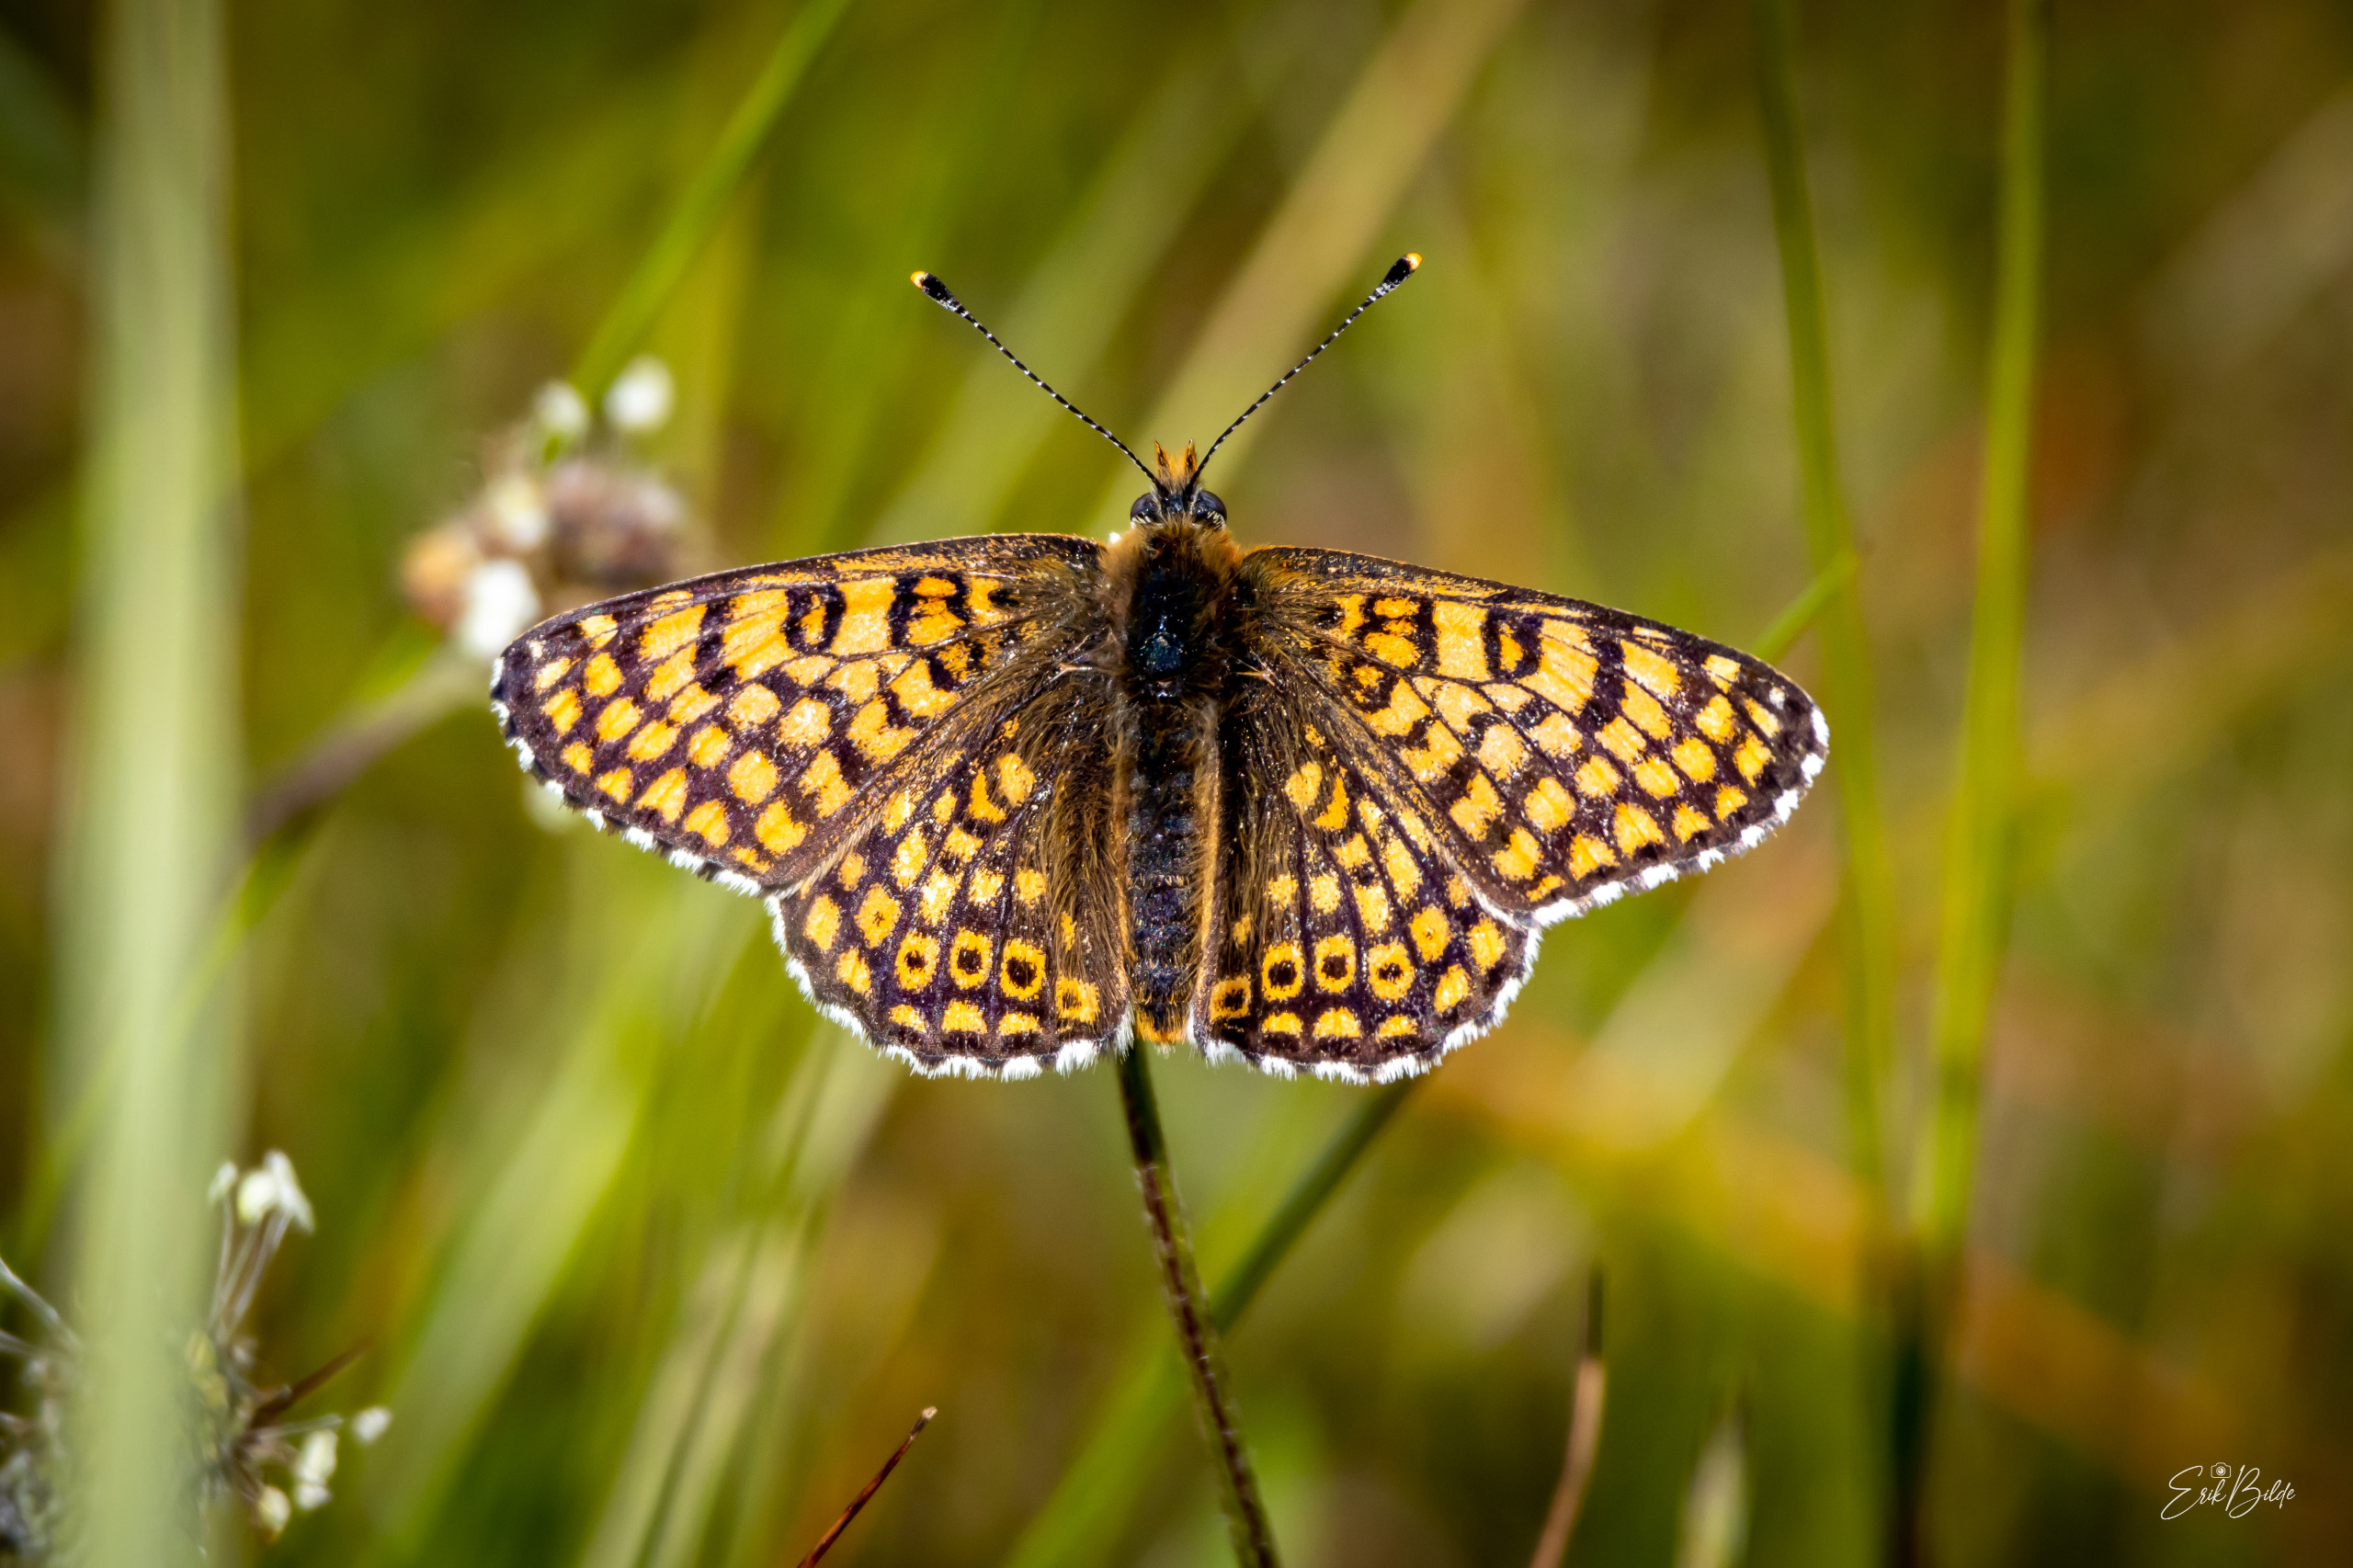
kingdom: Animalia
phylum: Arthropoda
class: Insecta
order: Lepidoptera
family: Nymphalidae
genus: Melitaea
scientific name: Melitaea cinxia
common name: Okkergul pletvinge
